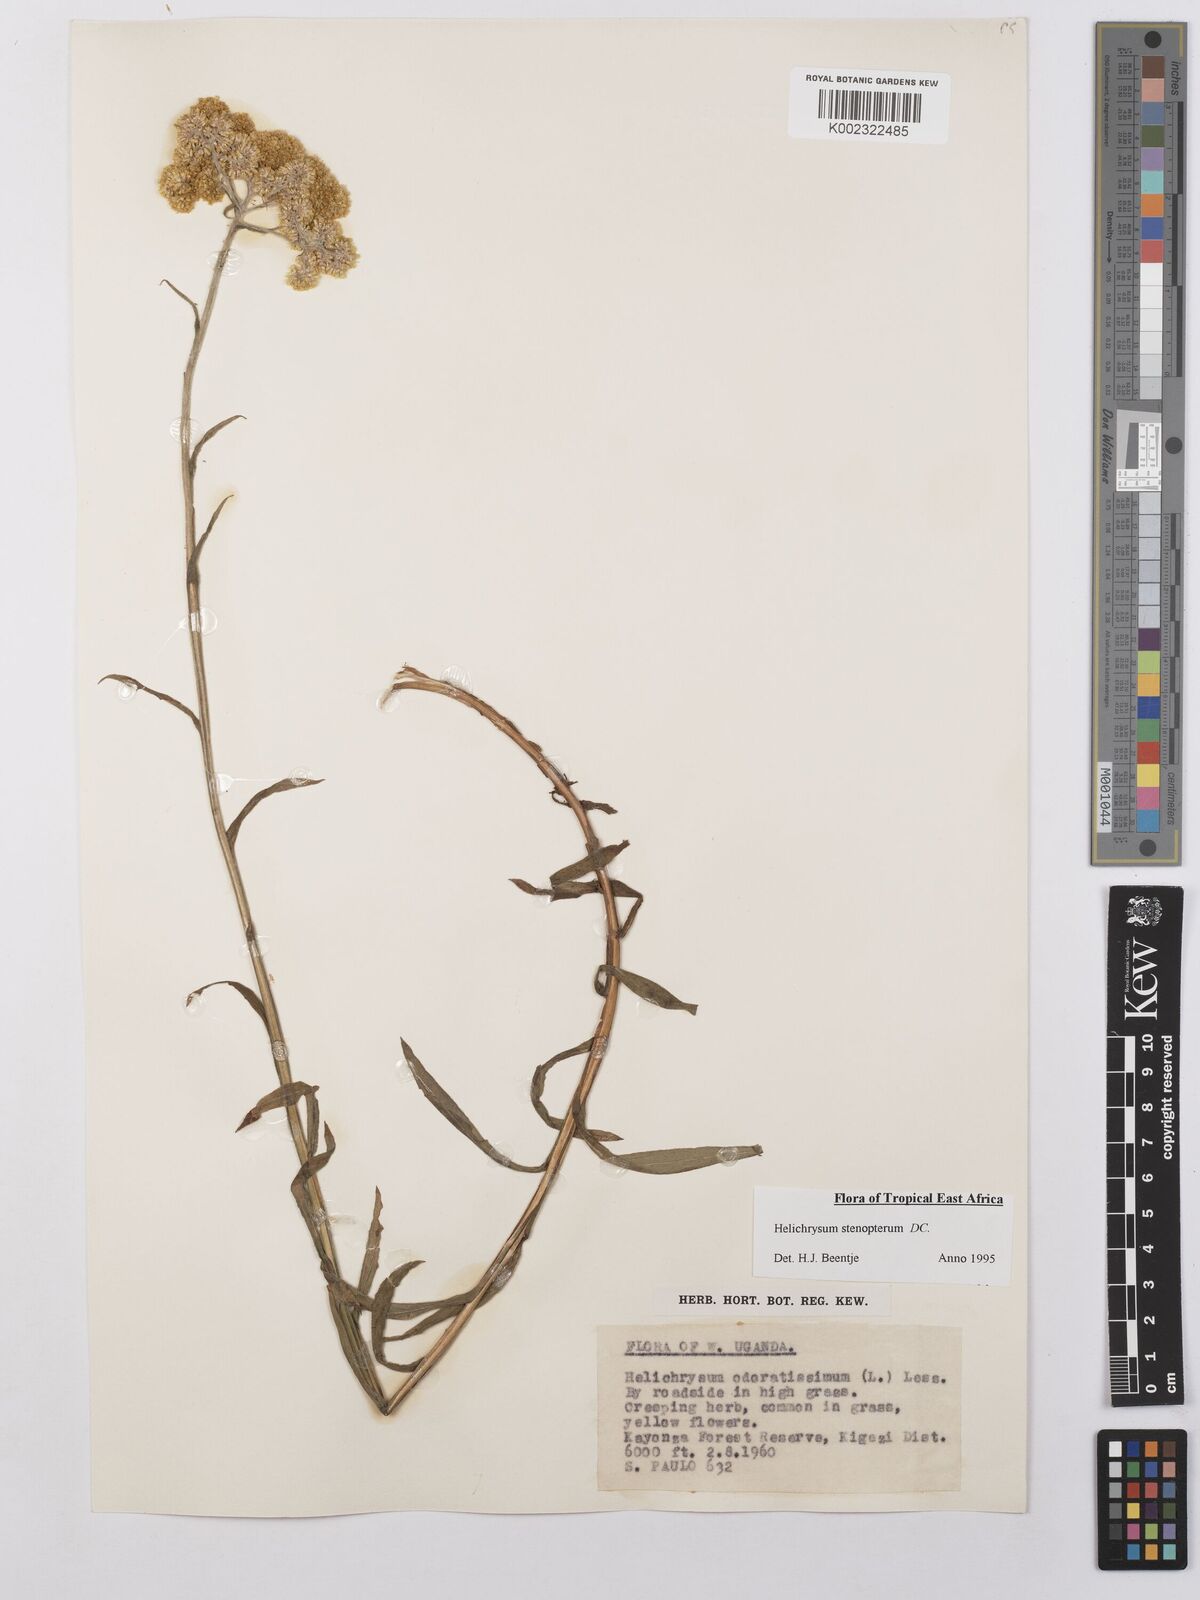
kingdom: Plantae
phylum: Tracheophyta
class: Magnoliopsida
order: Asterales
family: Asteraceae
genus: Helichrysum
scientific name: Helichrysum stenopterum
